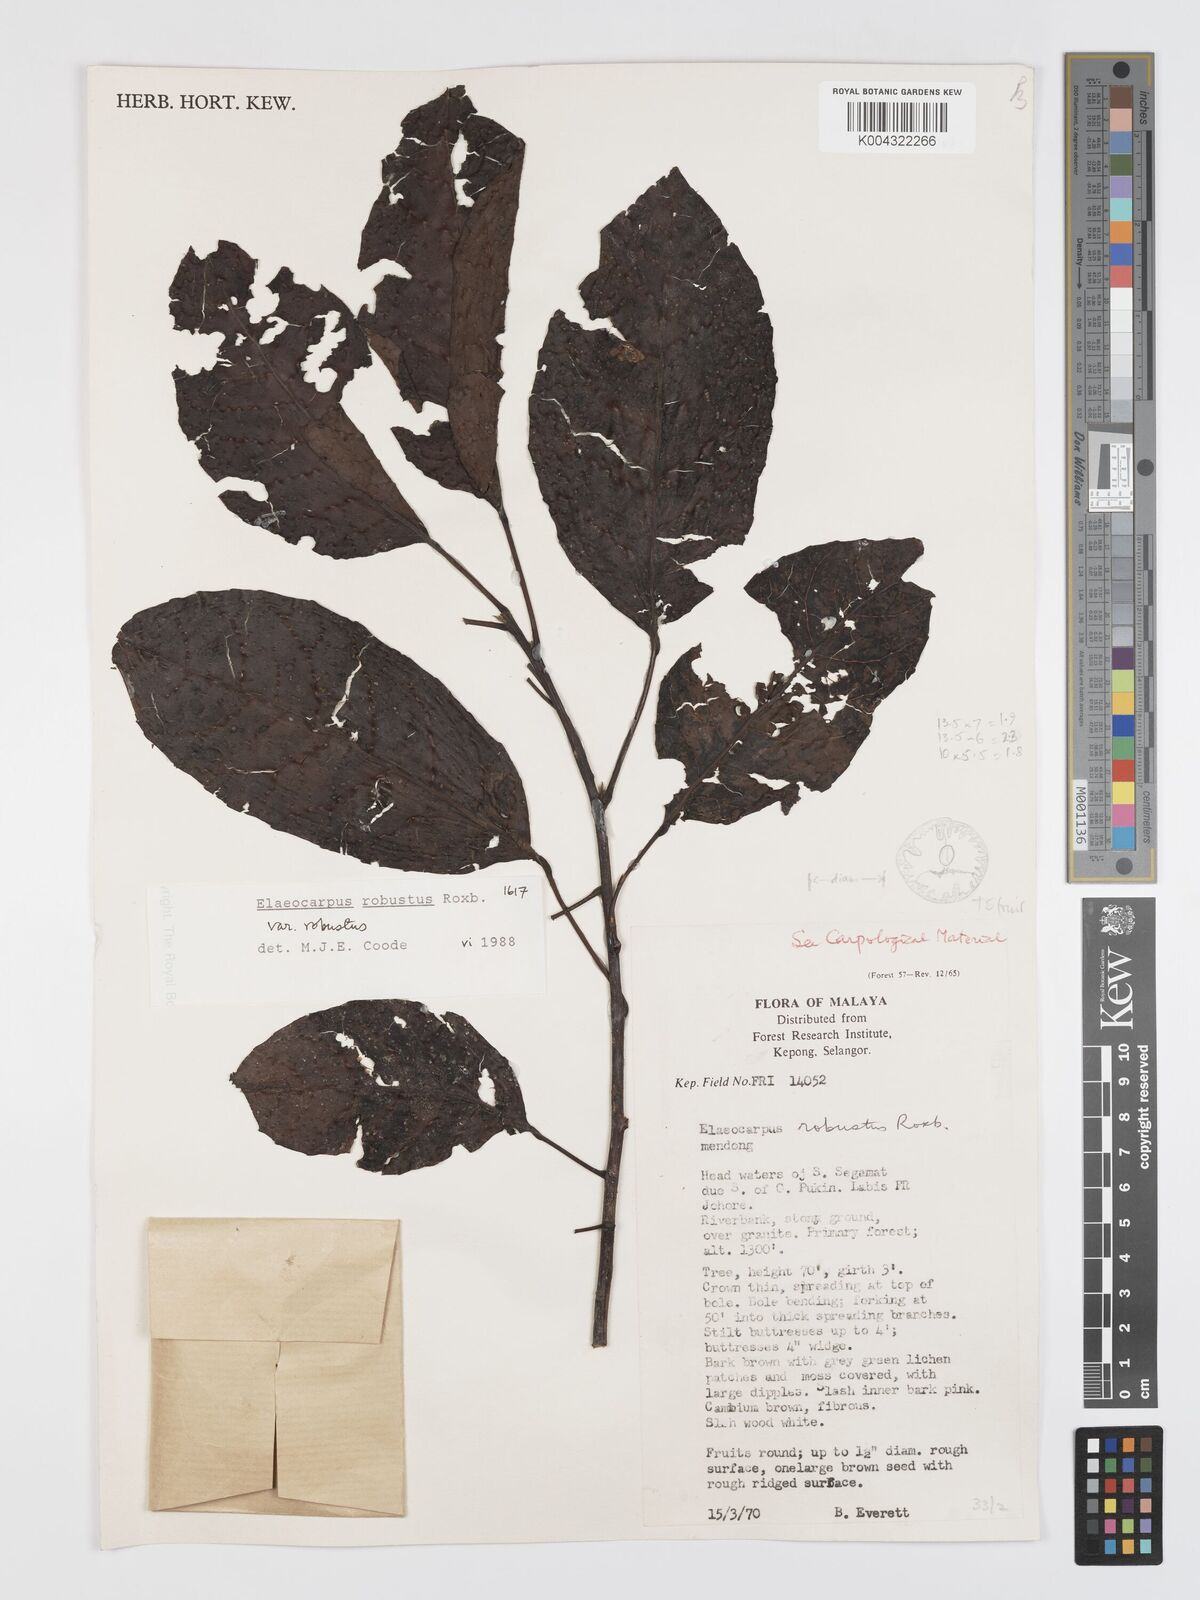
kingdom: Plantae
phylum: Tracheophyta
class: Magnoliopsida
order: Oxalidales
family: Elaeocarpaceae
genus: Elaeocarpus
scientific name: Elaeocarpus robustus
